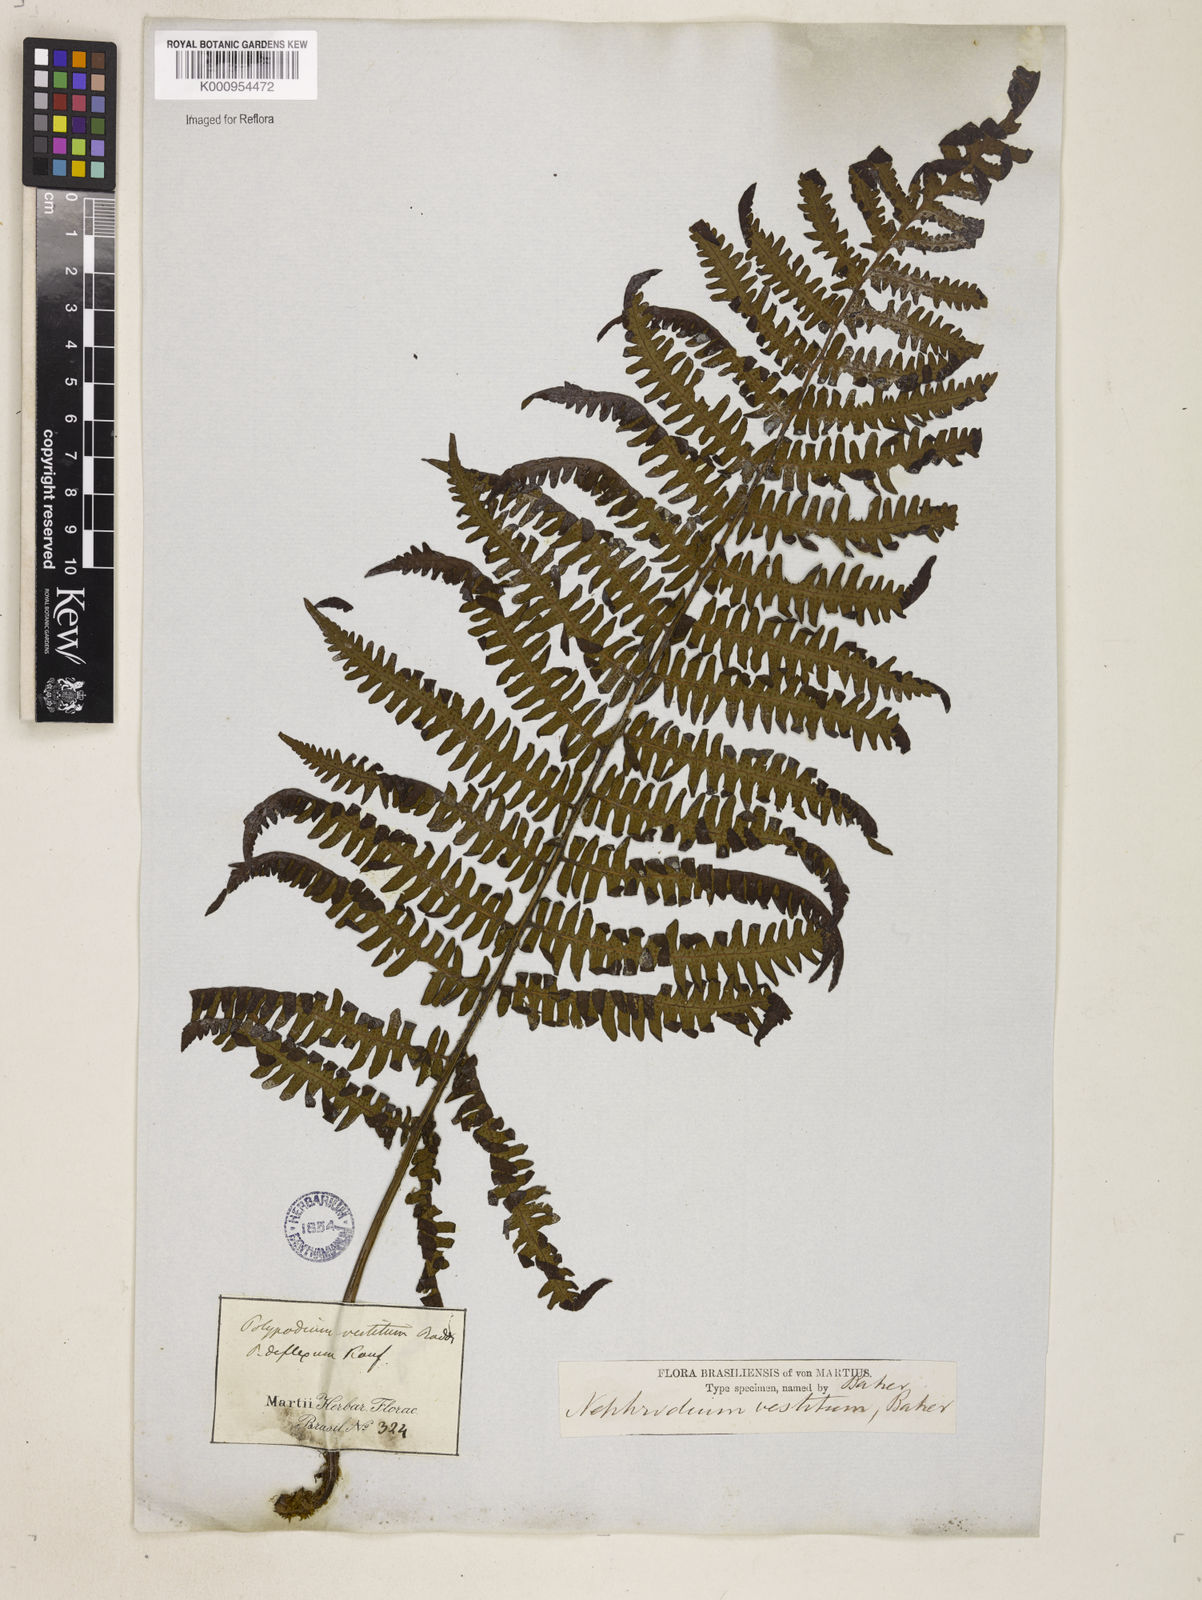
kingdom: Plantae
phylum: Tracheophyta
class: Polypodiopsida
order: Polypodiales
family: Dryopteridaceae
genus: Ctenitis
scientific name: Ctenitis
